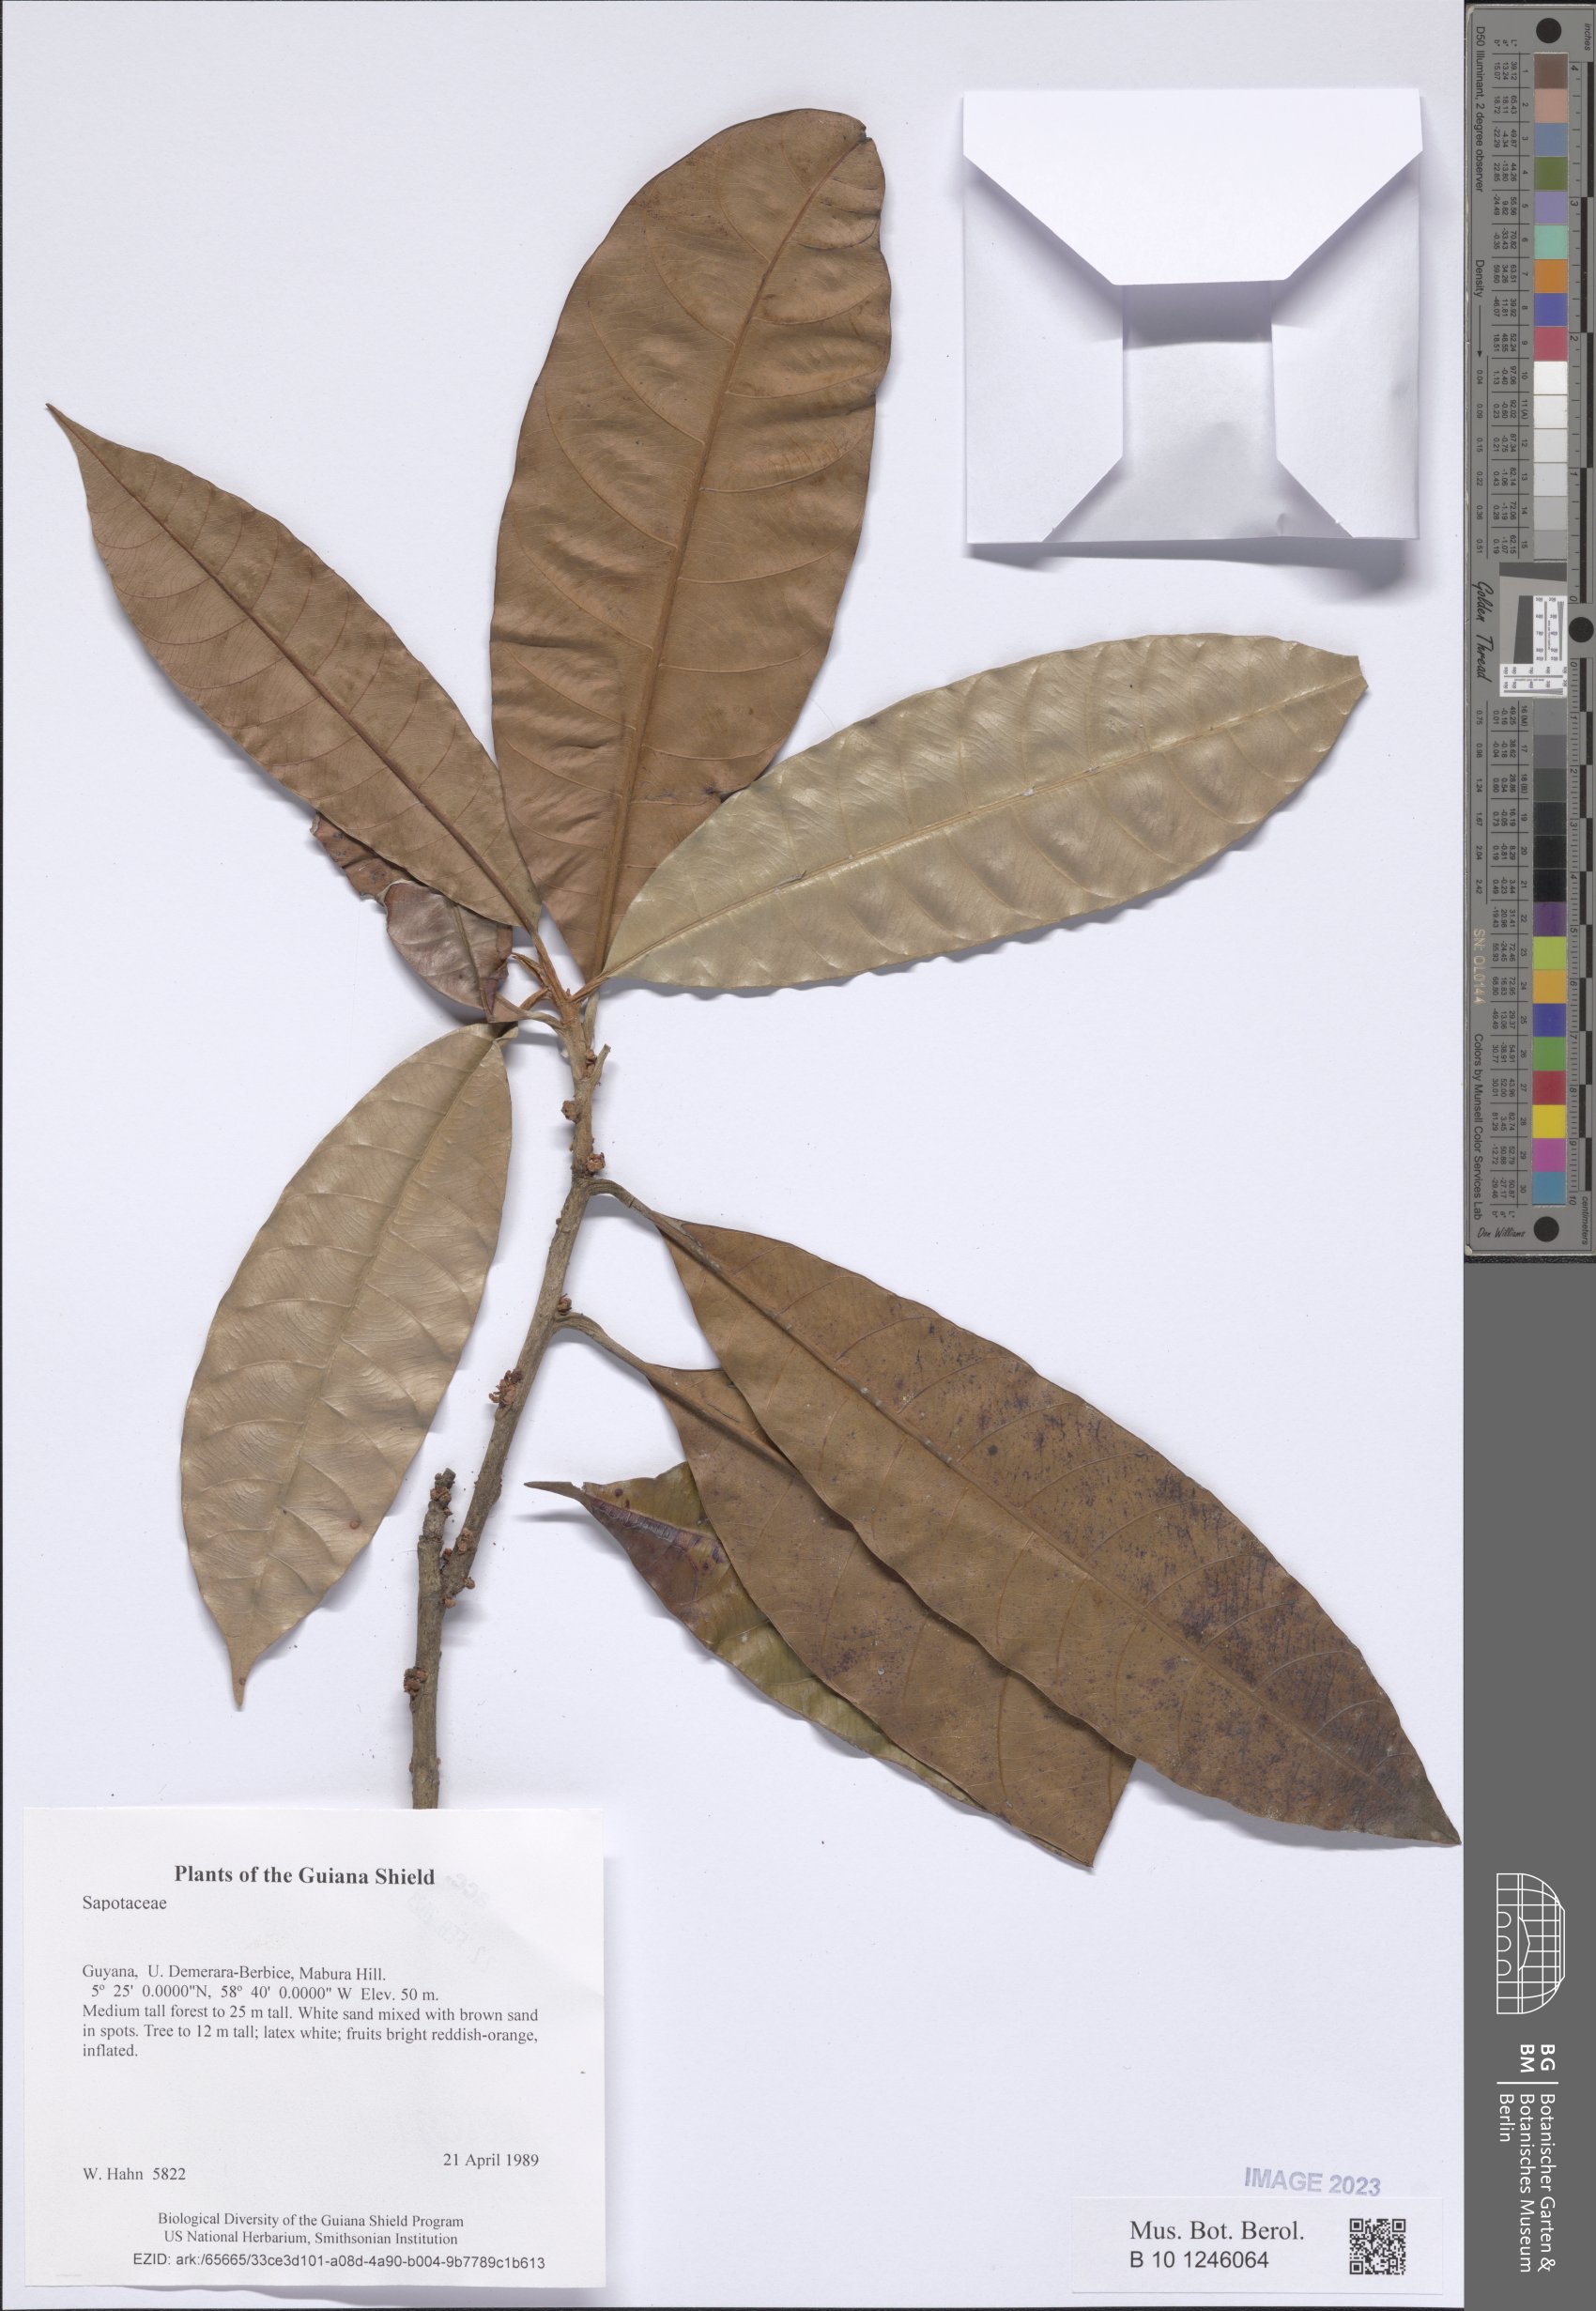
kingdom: Plantae
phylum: Tracheophyta
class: Magnoliopsida
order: Ericales
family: Sapotaceae
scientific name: Sapotaceae
